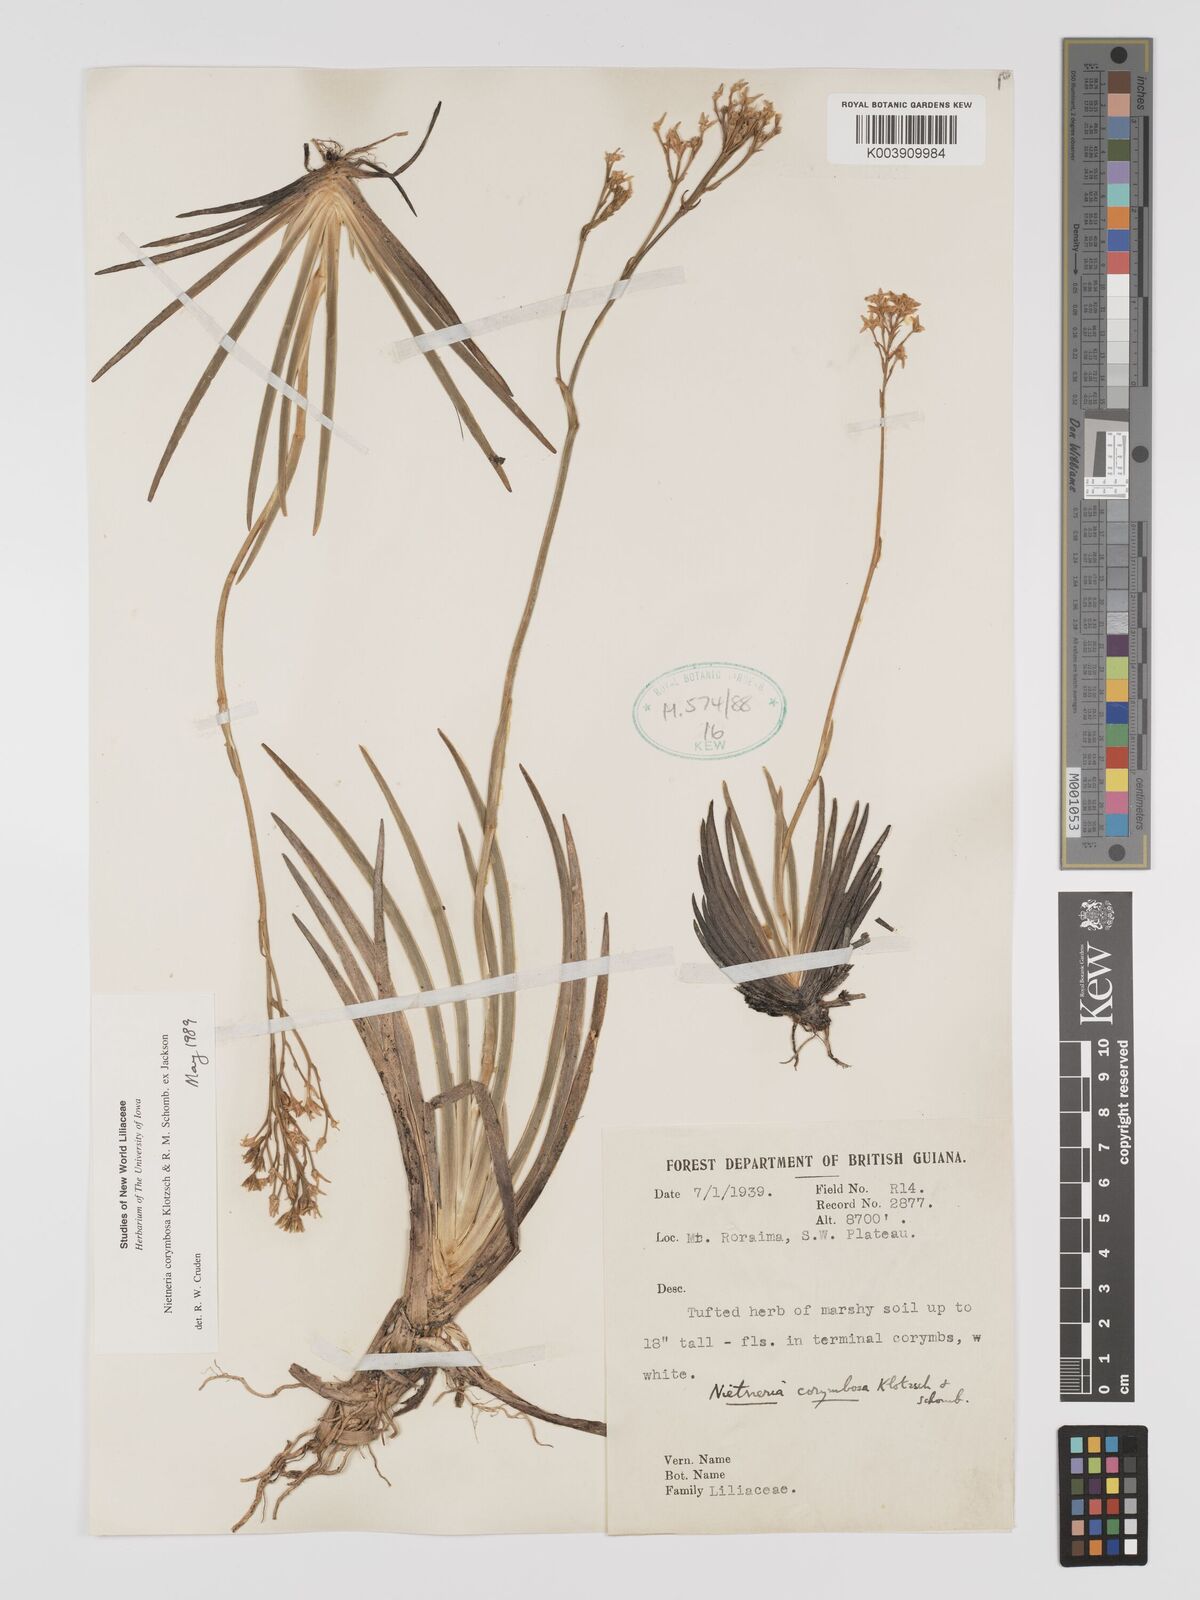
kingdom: Plantae
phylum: Tracheophyta
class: Liliopsida
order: Dioscoreales
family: Nartheciaceae
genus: Nietneria
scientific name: Nietneria corymbosa
